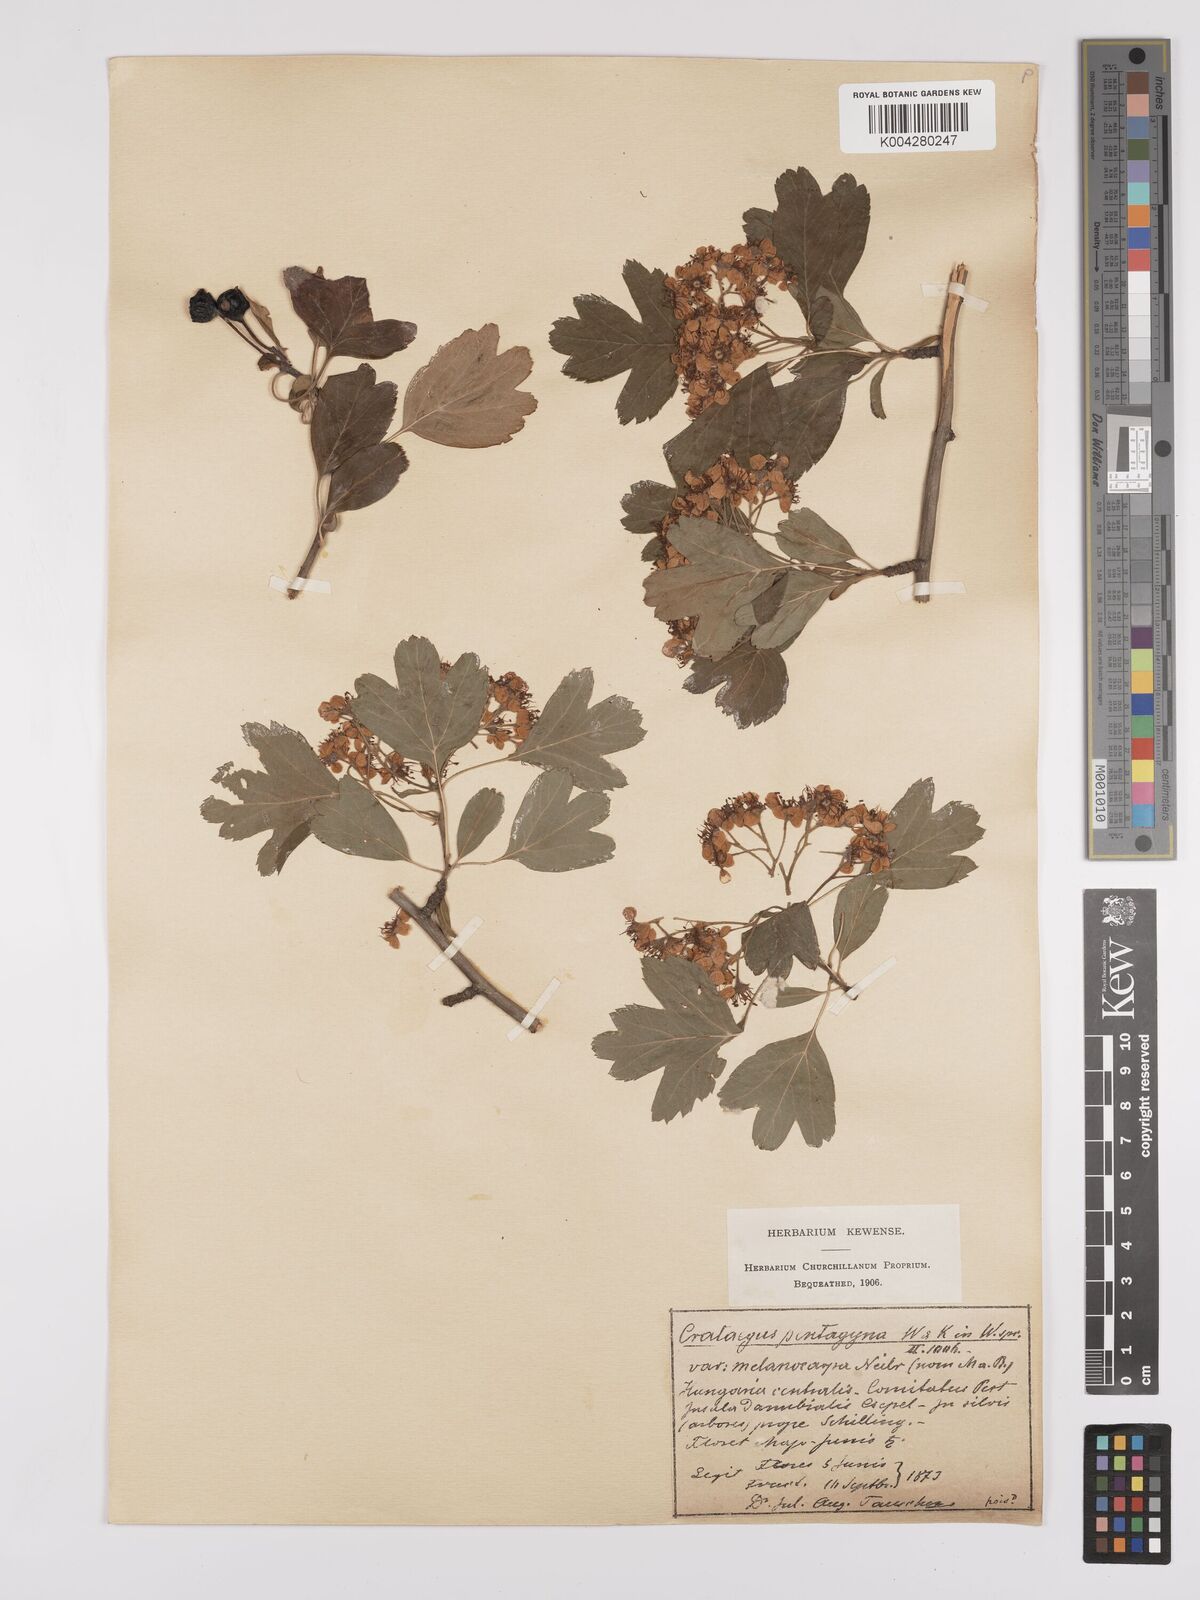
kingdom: Plantae
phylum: Tracheophyta
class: Magnoliopsida
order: Rosales
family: Rosaceae
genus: Crataegus
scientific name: Crataegus pentagyna
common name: Small-flowered black hawthorn
